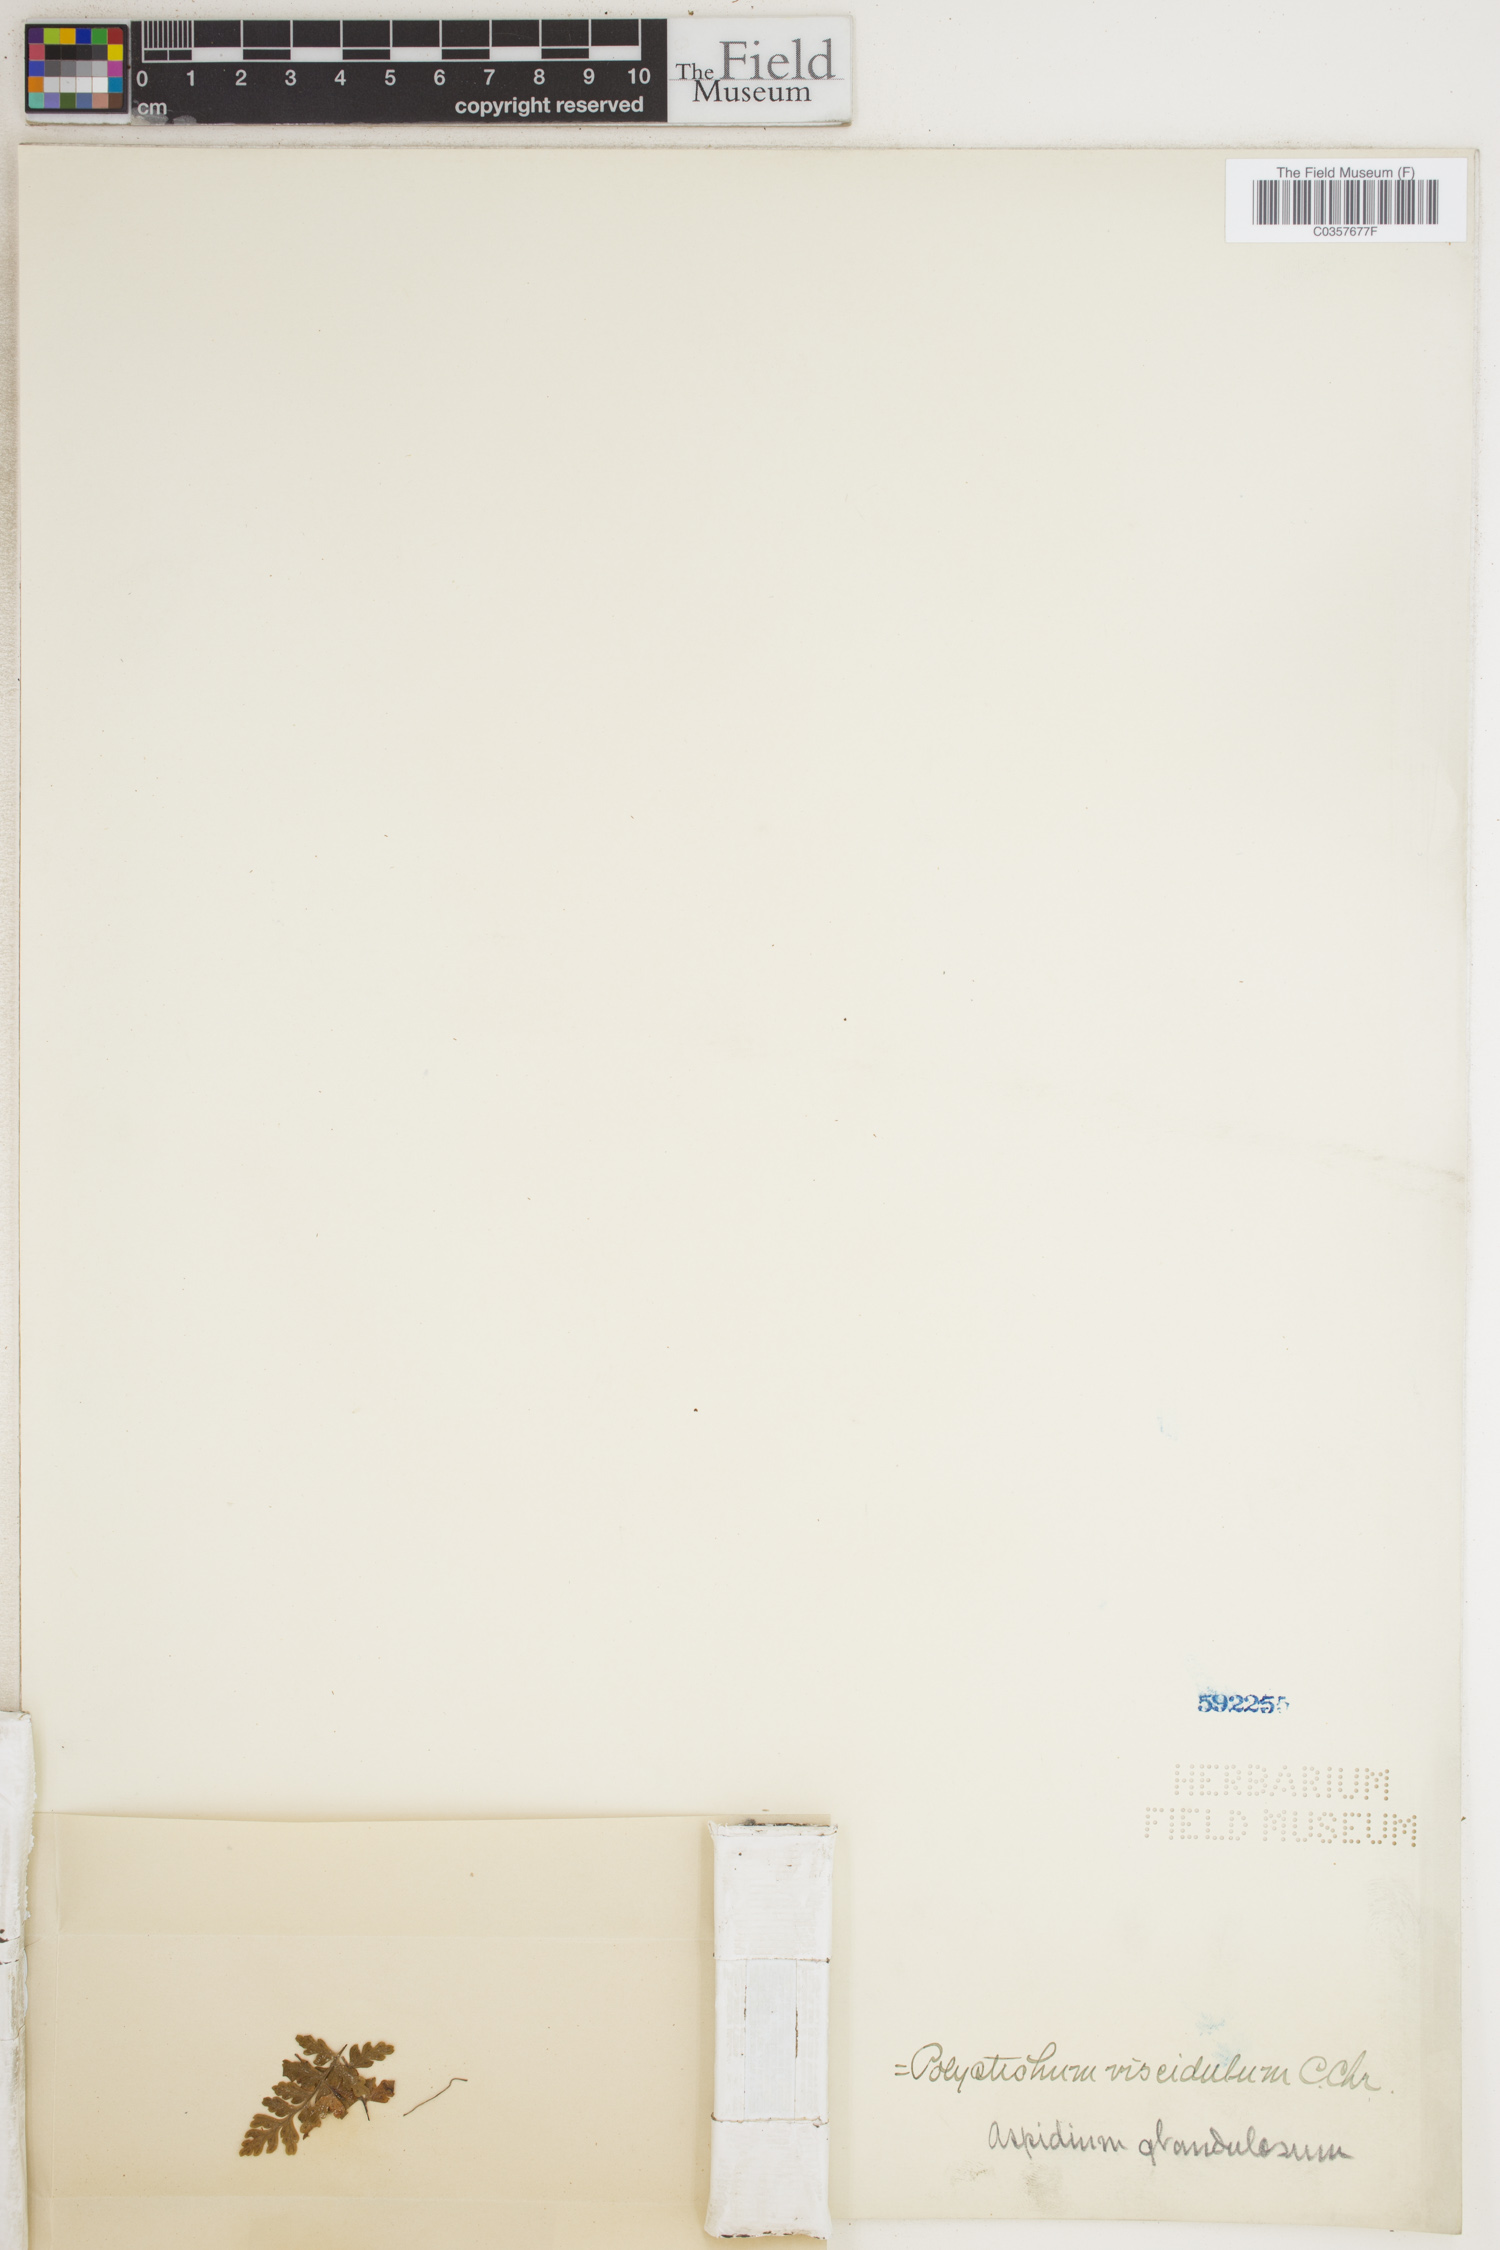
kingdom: Plantae
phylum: Tracheophyta
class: Polypodiopsida
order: Polypodiales
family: Dryopteridaceae
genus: Polystichum
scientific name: Polystichum glandulosum
